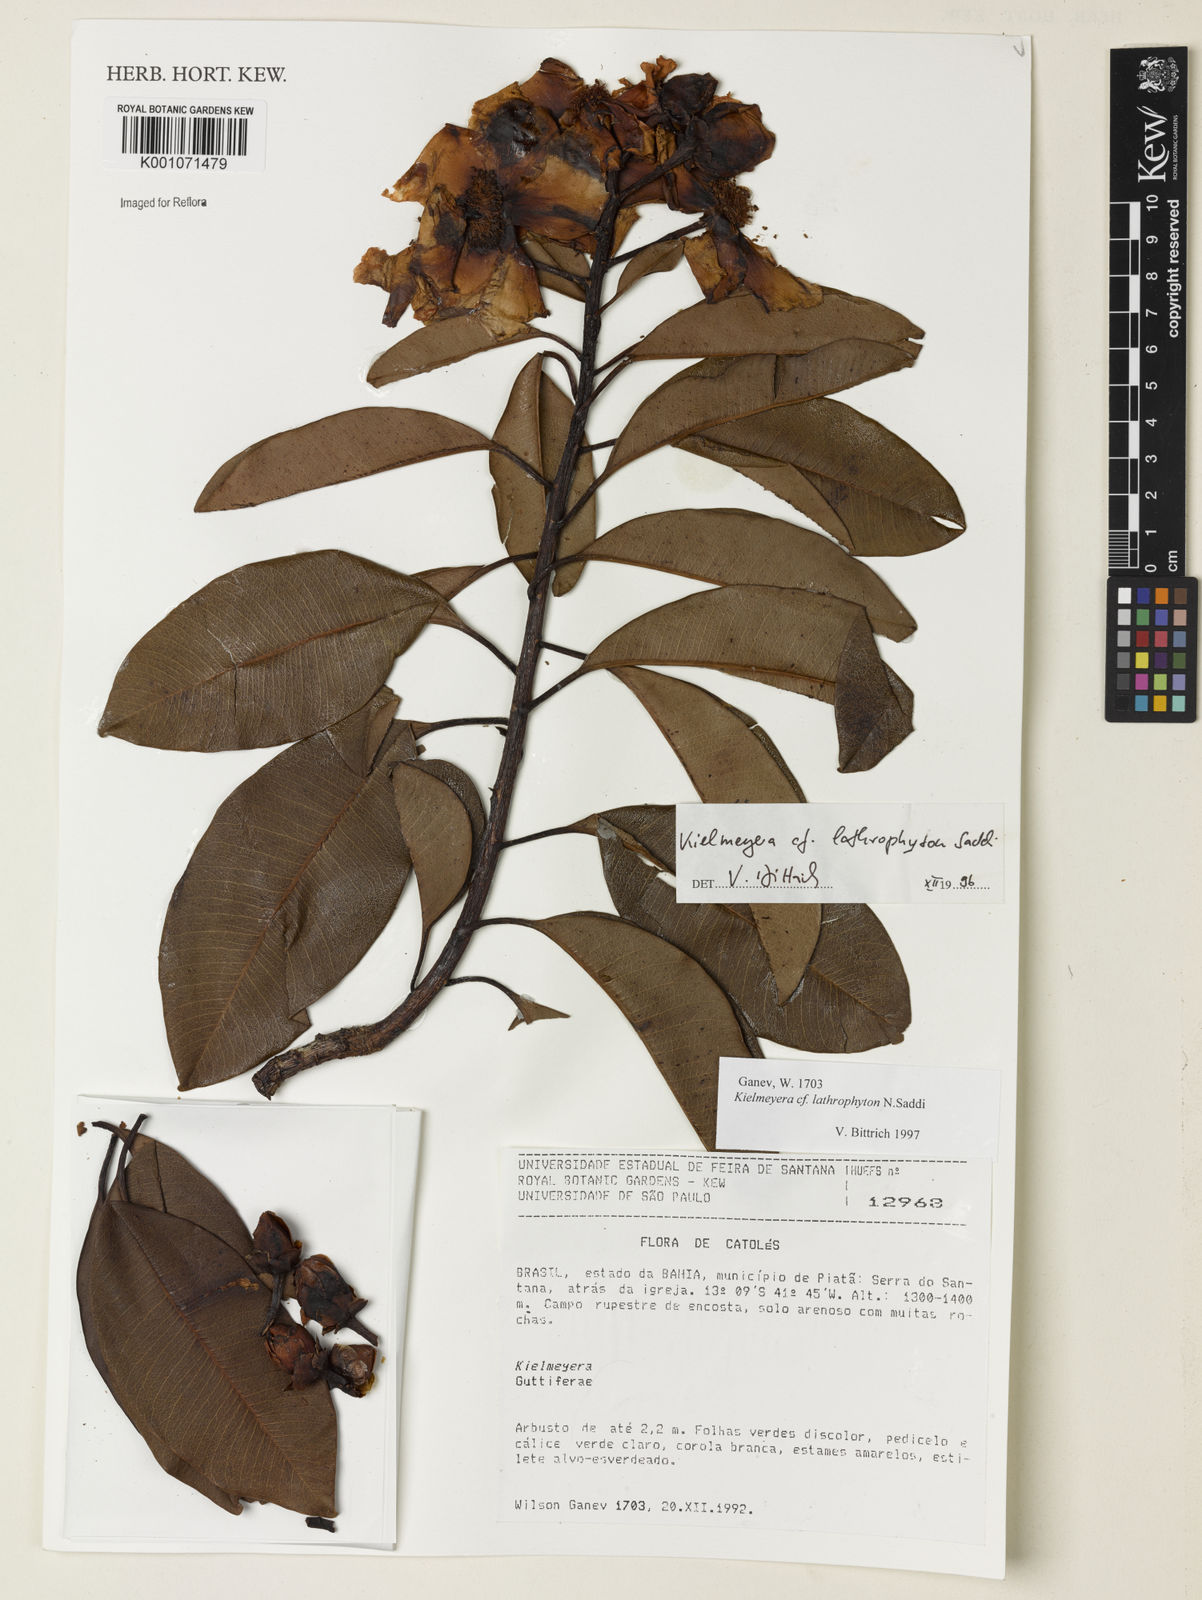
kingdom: Plantae
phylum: Tracheophyta
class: Magnoliopsida
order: Malpighiales
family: Calophyllaceae
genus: Kielmeyera
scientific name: Kielmeyera lathrophyton
